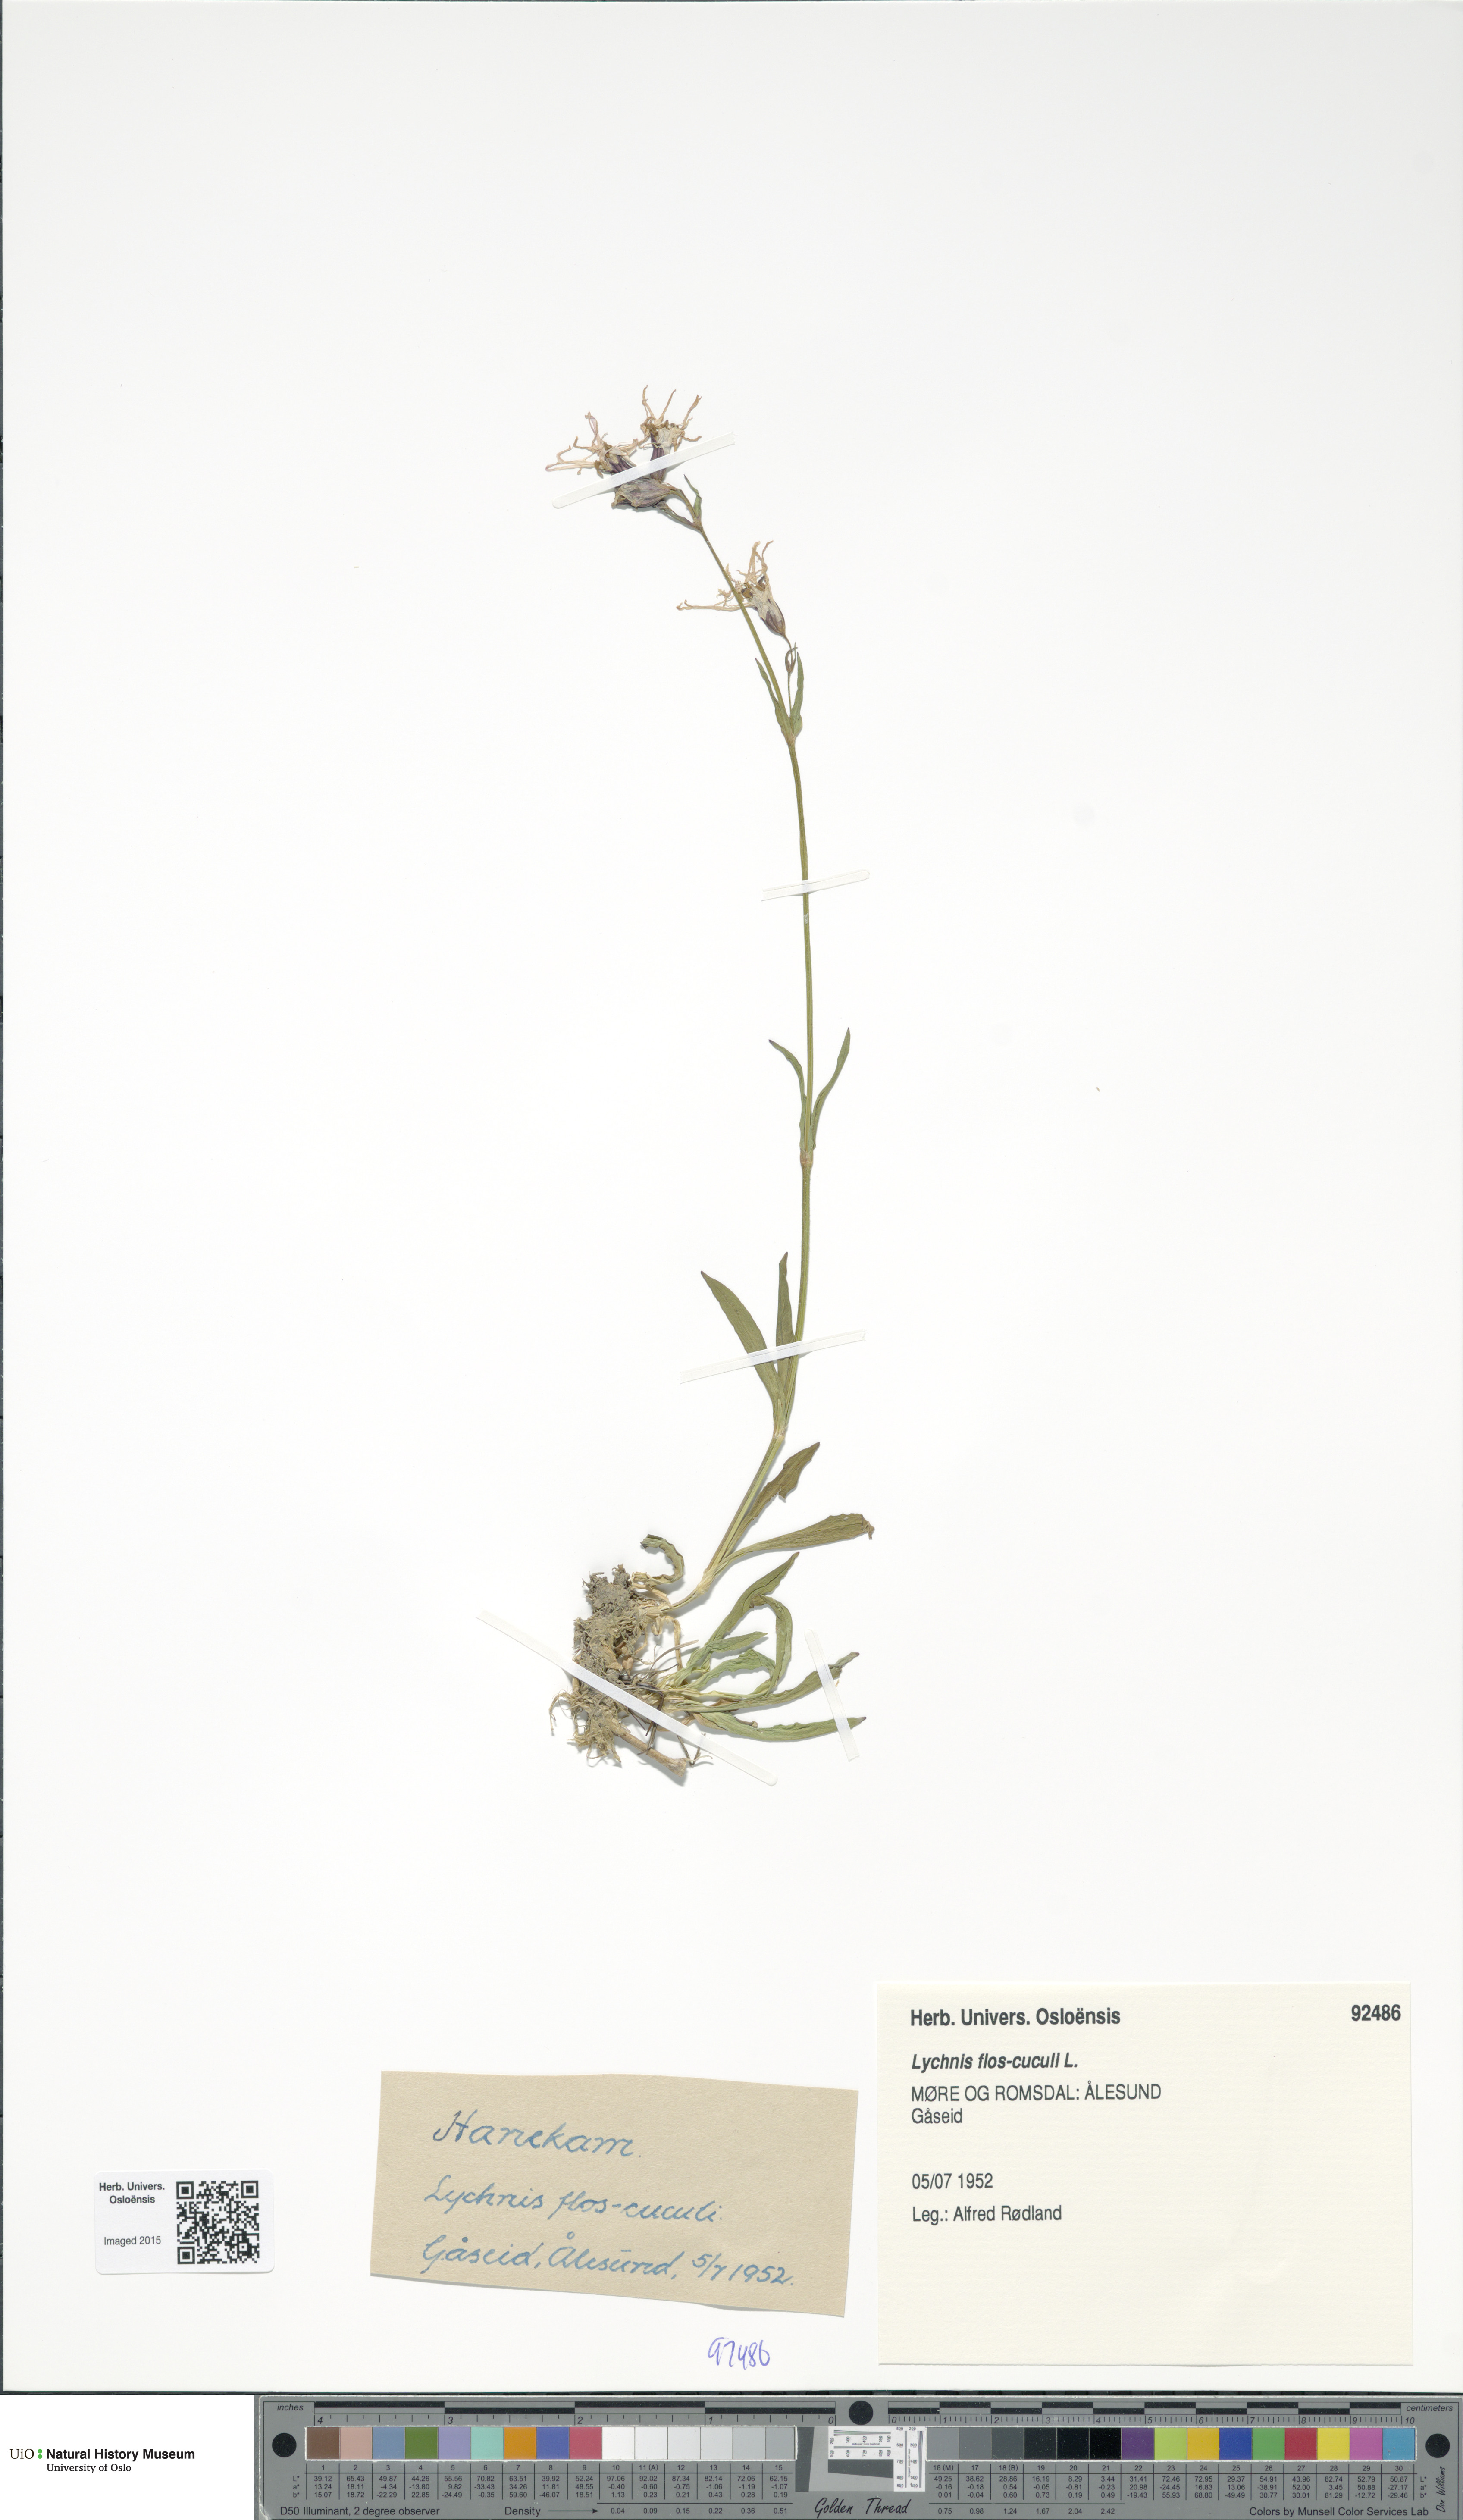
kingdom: Plantae
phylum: Tracheophyta
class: Magnoliopsida
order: Caryophyllales
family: Caryophyllaceae
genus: Silene
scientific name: Silene flos-cuculi
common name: Ragged-robin
